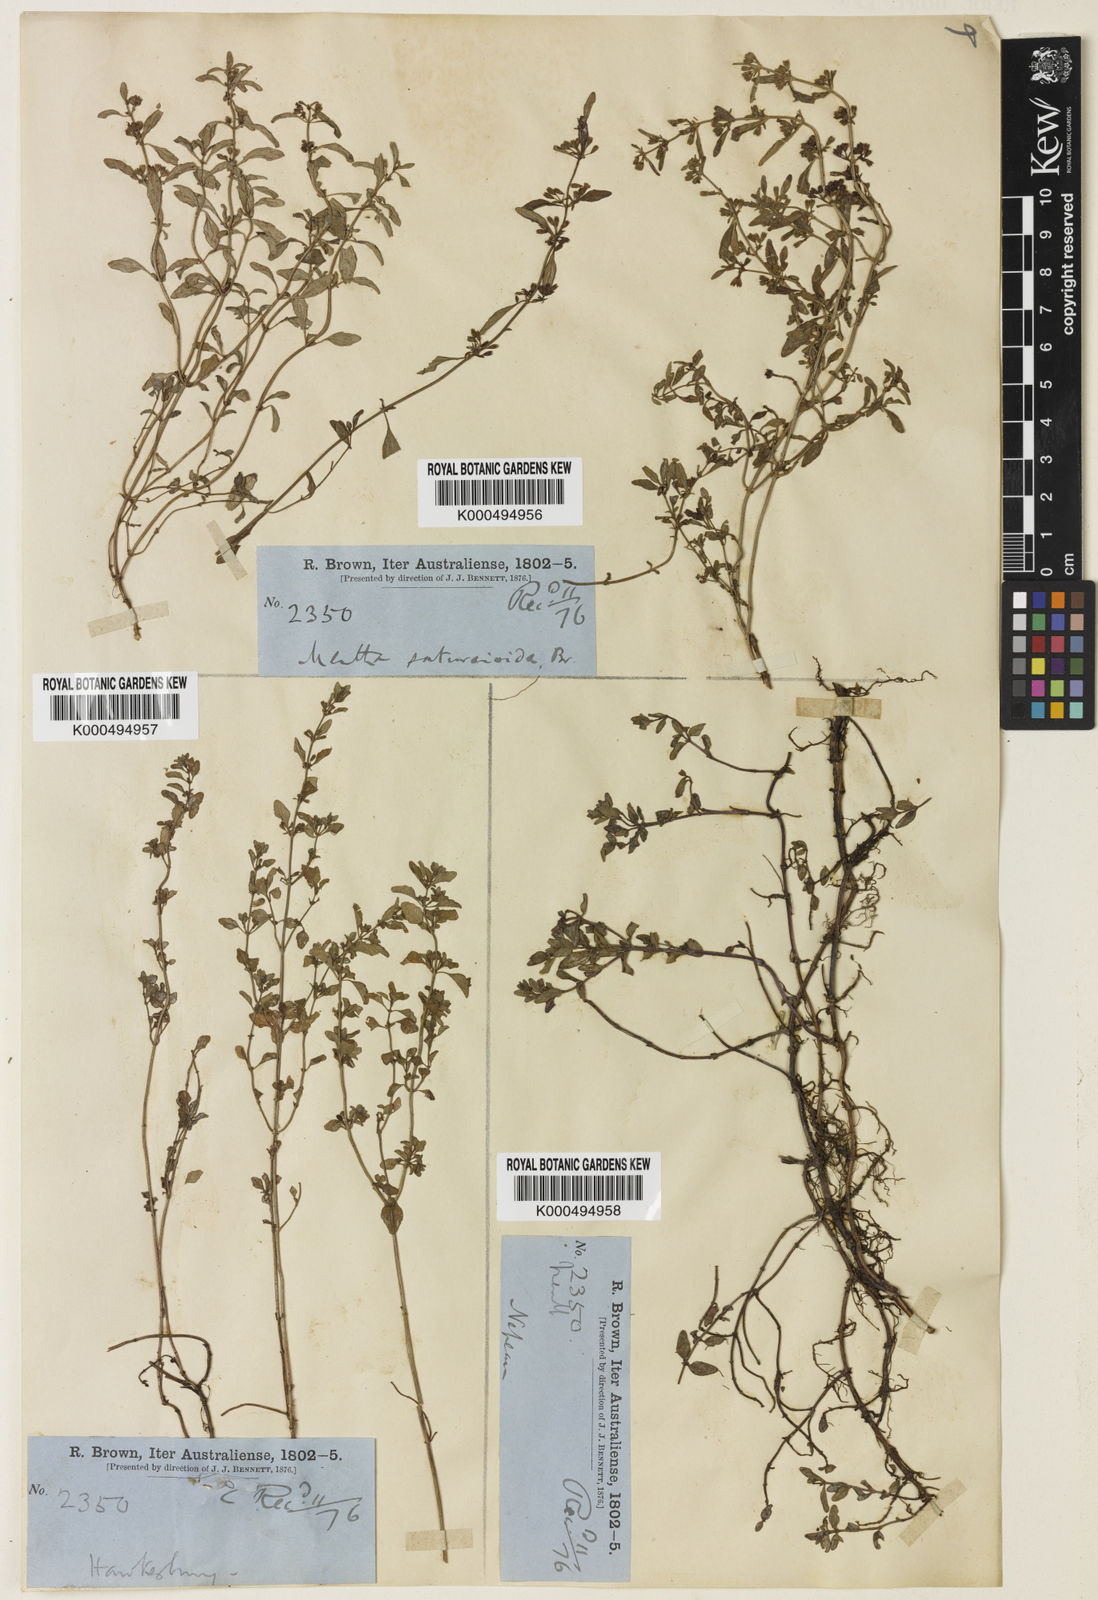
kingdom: Plantae
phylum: Tracheophyta
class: Magnoliopsida
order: Lamiales
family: Lamiaceae
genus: Mentha
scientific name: Mentha satureioides
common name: Brisbane pennyroyal
